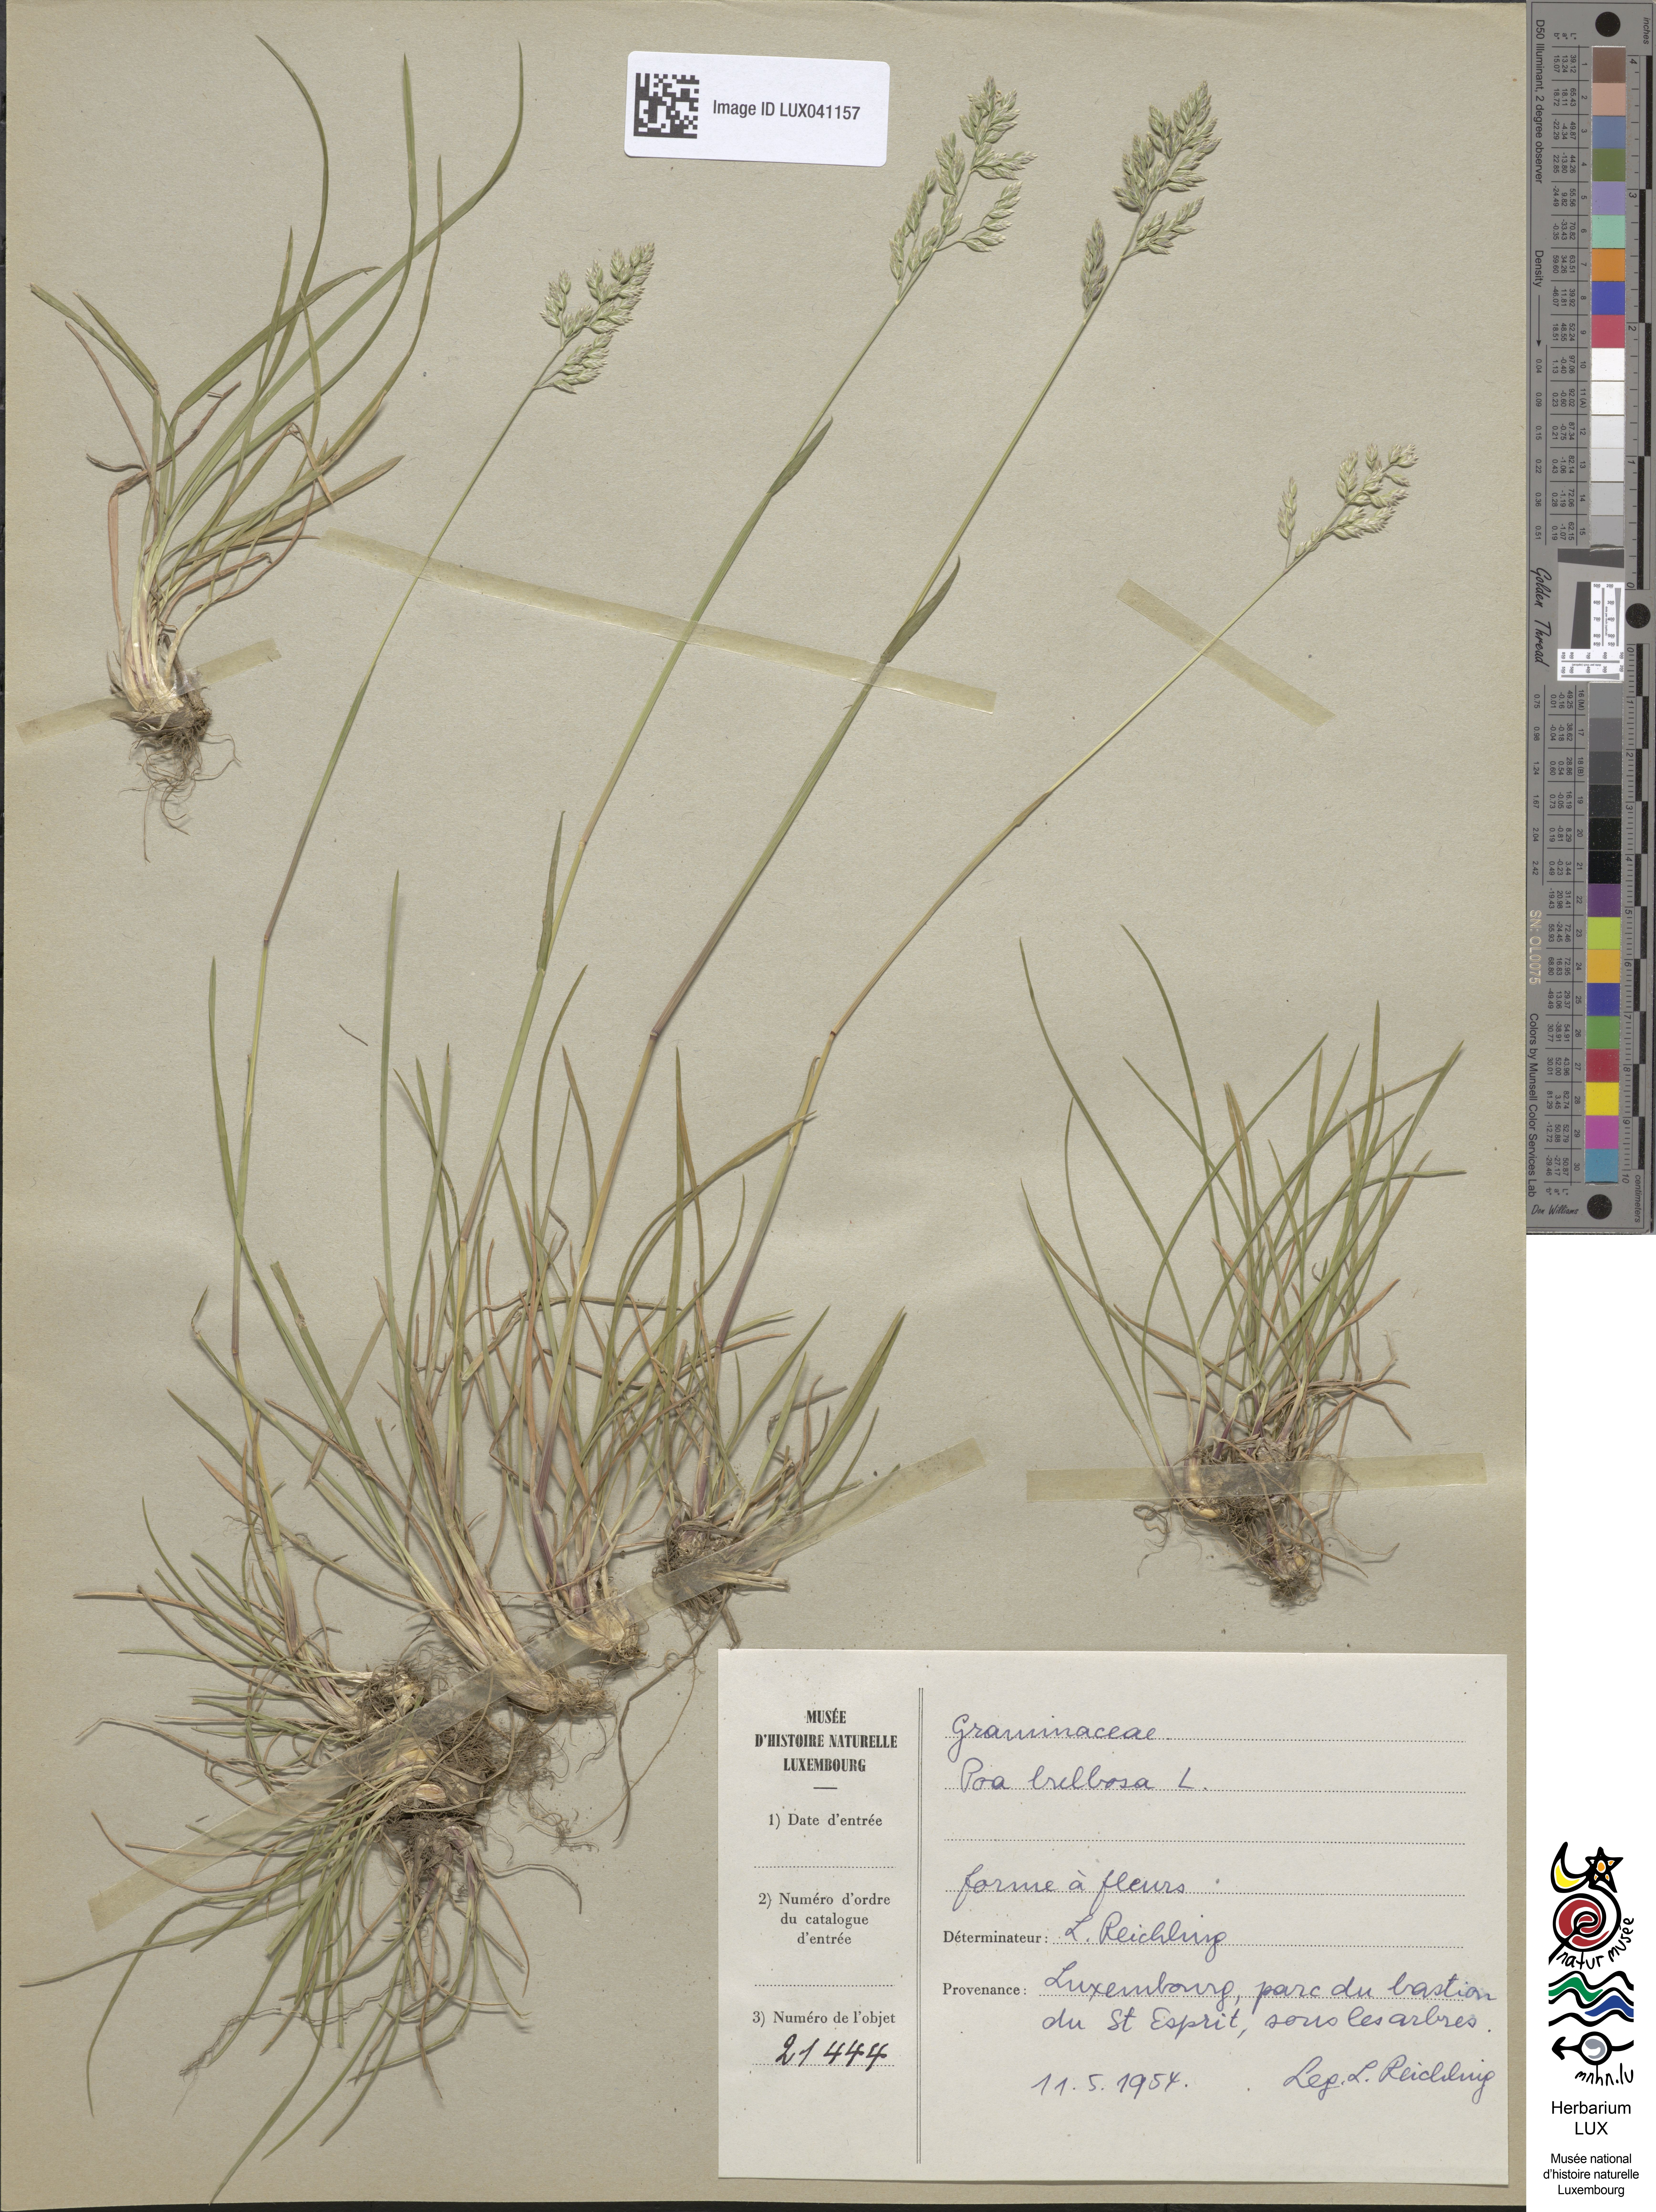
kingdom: Plantae
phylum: Tracheophyta
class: Liliopsida
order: Poales
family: Poaceae
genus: Poa
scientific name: Poa bulbosa
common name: Bulbous bluegrass
